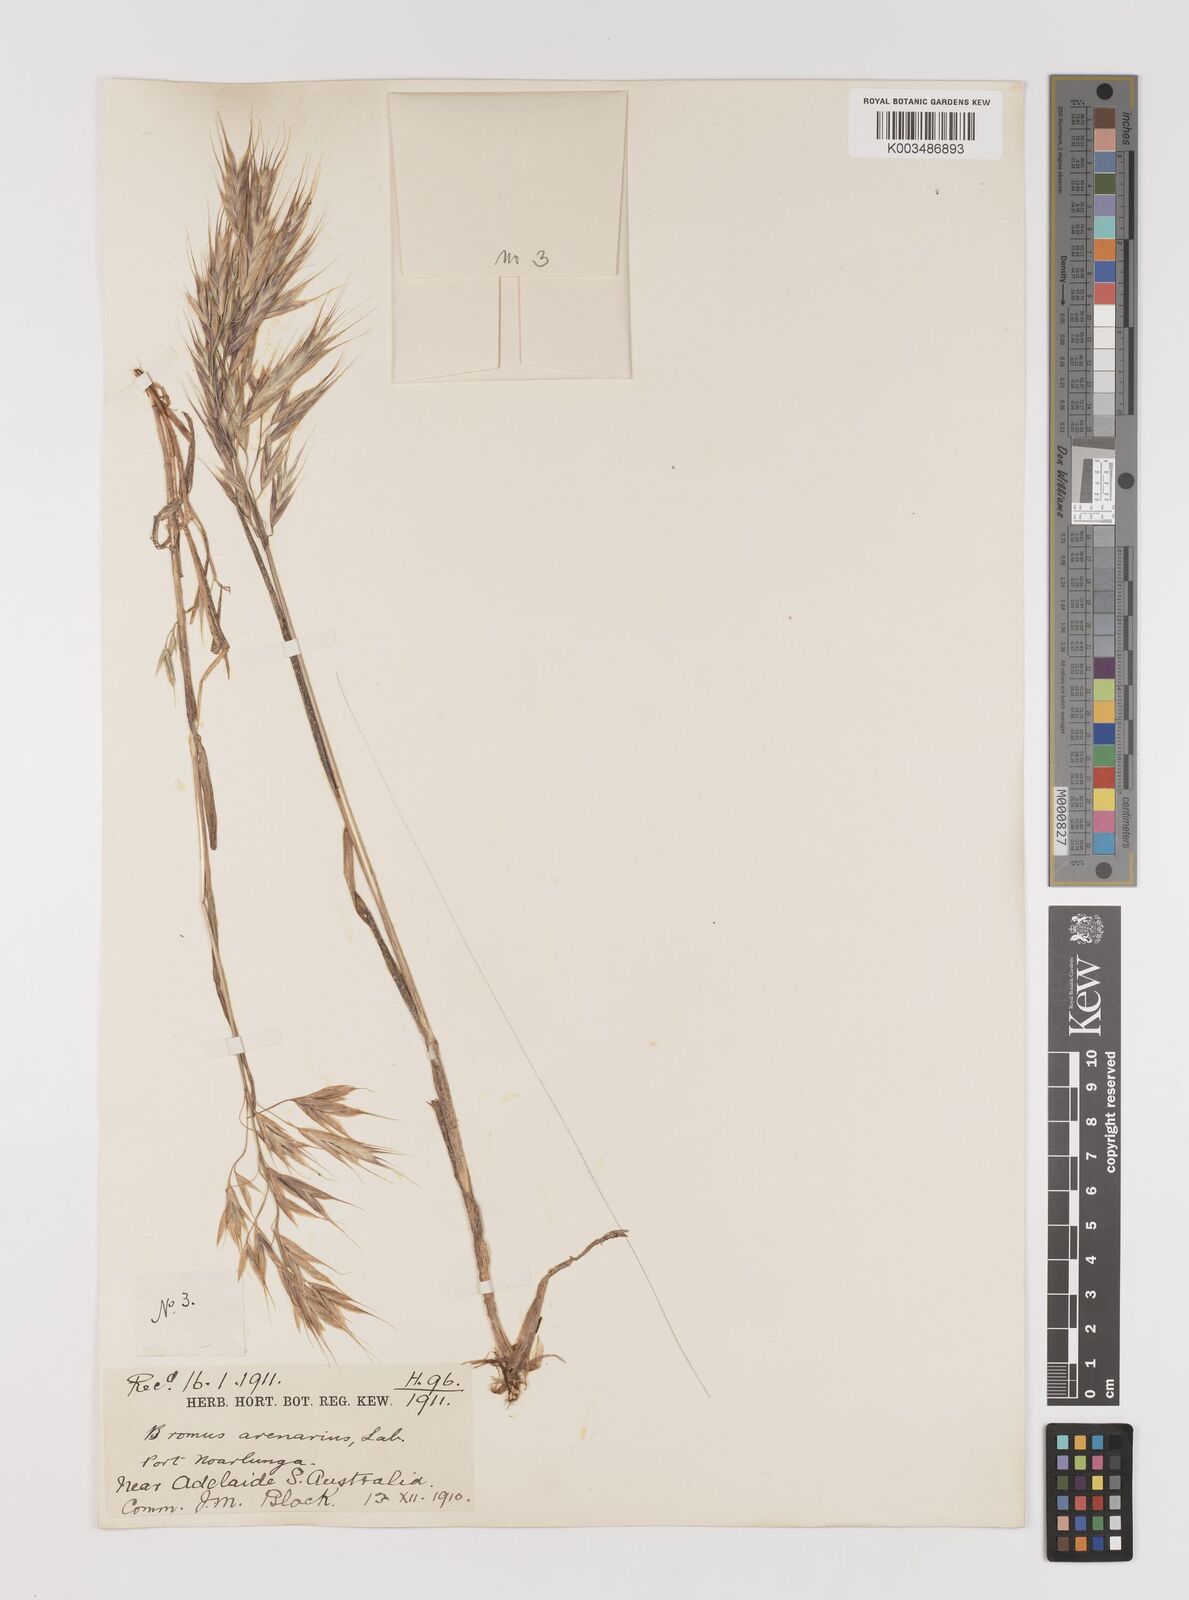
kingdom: Plantae
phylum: Tracheophyta
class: Liliopsida
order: Poales
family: Poaceae
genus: Bromus
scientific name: Bromus arenarius
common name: Australian brome
